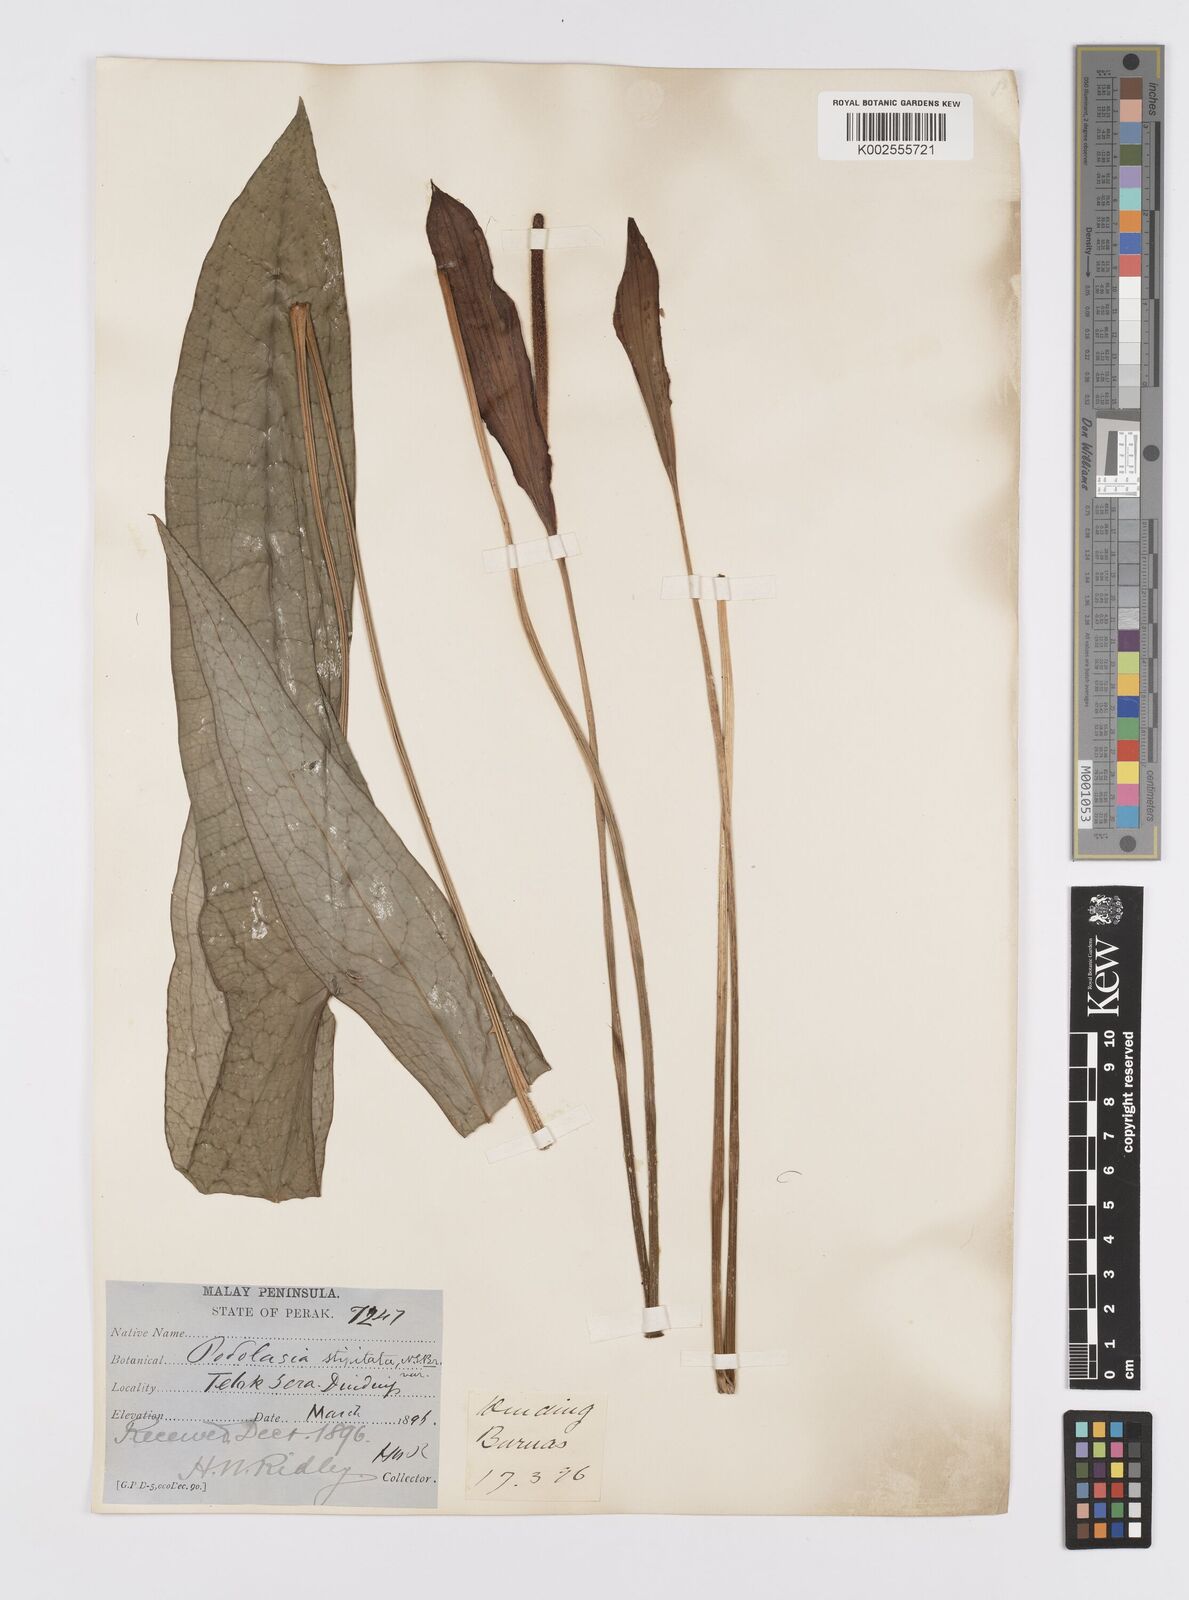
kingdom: Plantae
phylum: Tracheophyta
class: Liliopsida
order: Alismatales
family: Araceae
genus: Podolasia
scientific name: Podolasia stipitata
